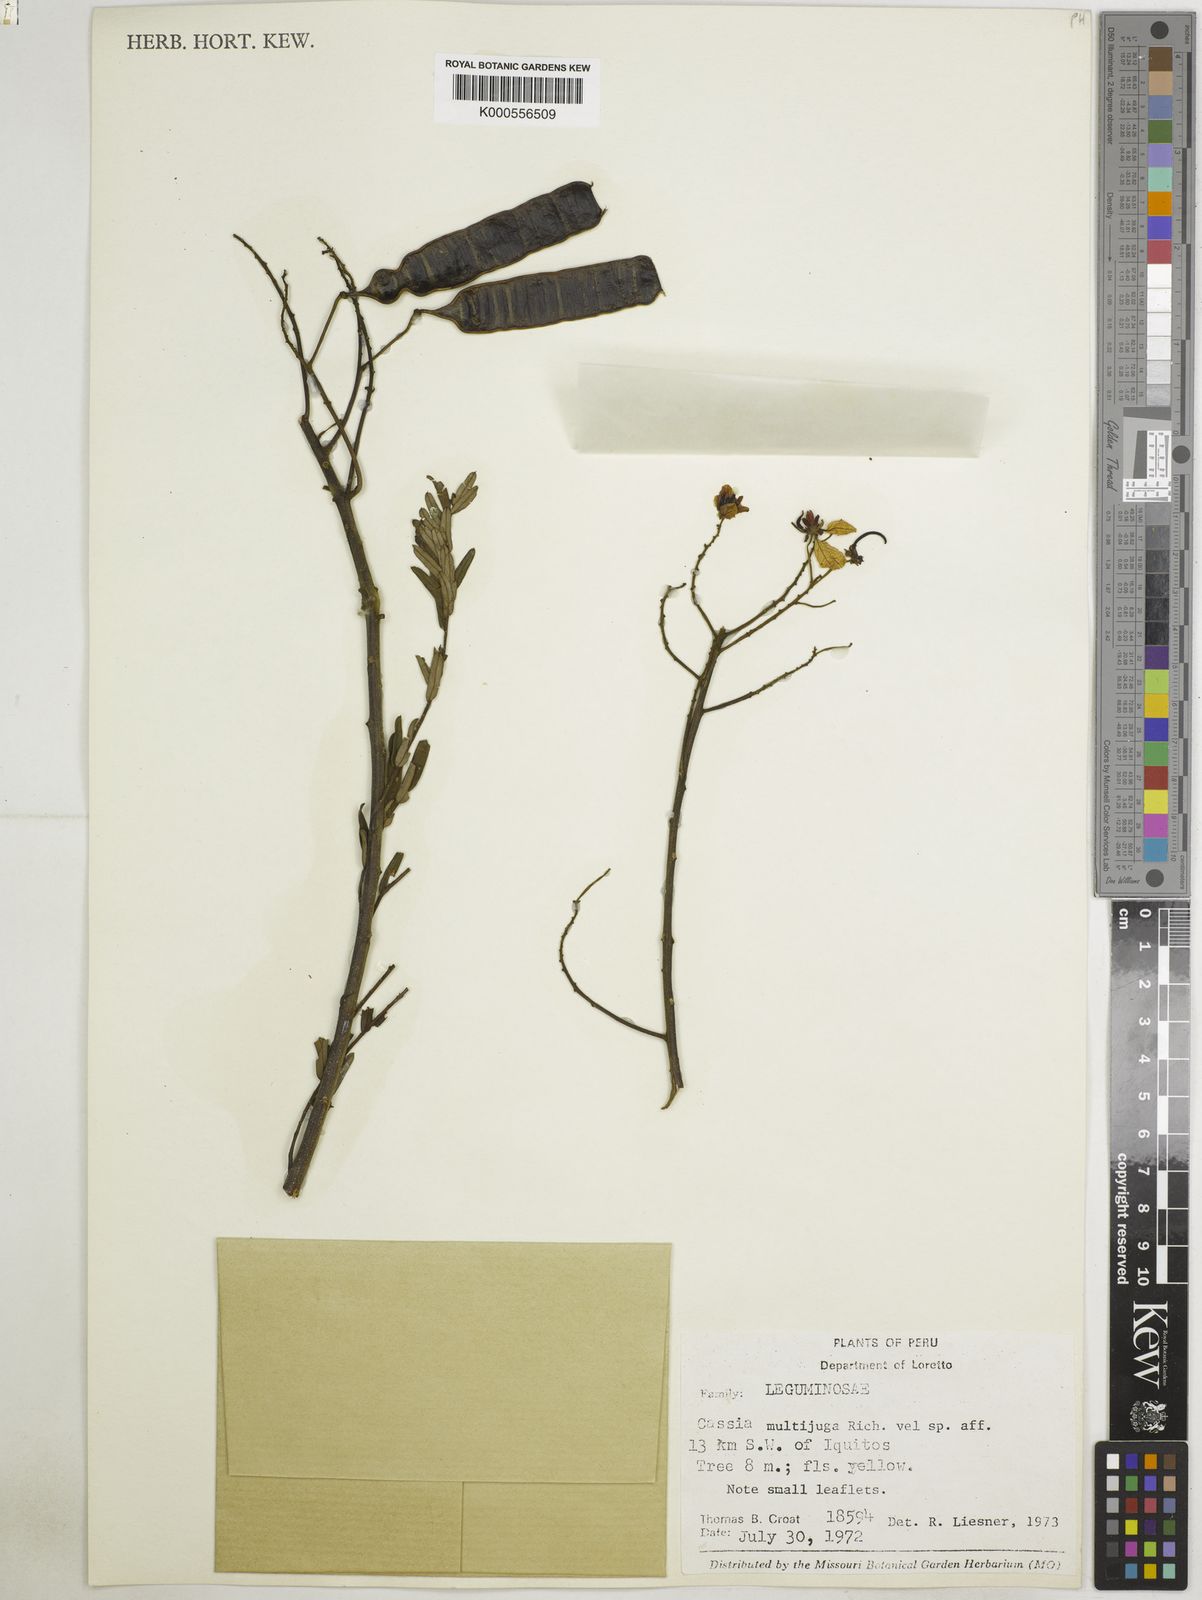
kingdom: Plantae
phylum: Tracheophyta
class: Magnoliopsida
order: Fabales
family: Fabaceae
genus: Senna
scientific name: Senna multijuga
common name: False sicklepod
